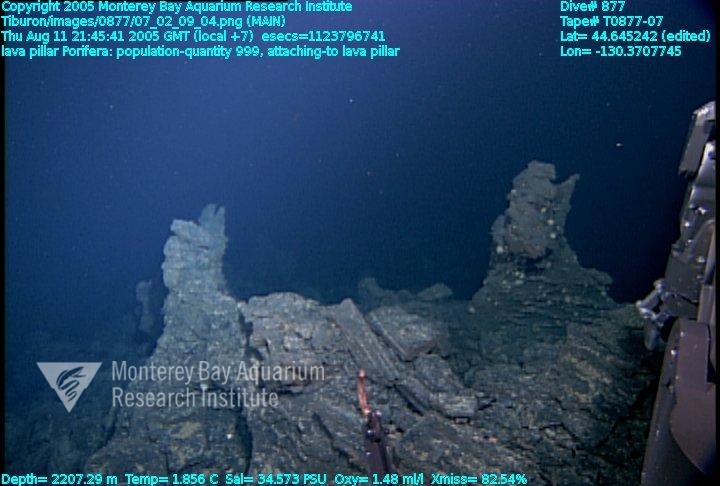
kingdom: Animalia
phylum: Porifera
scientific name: Porifera
